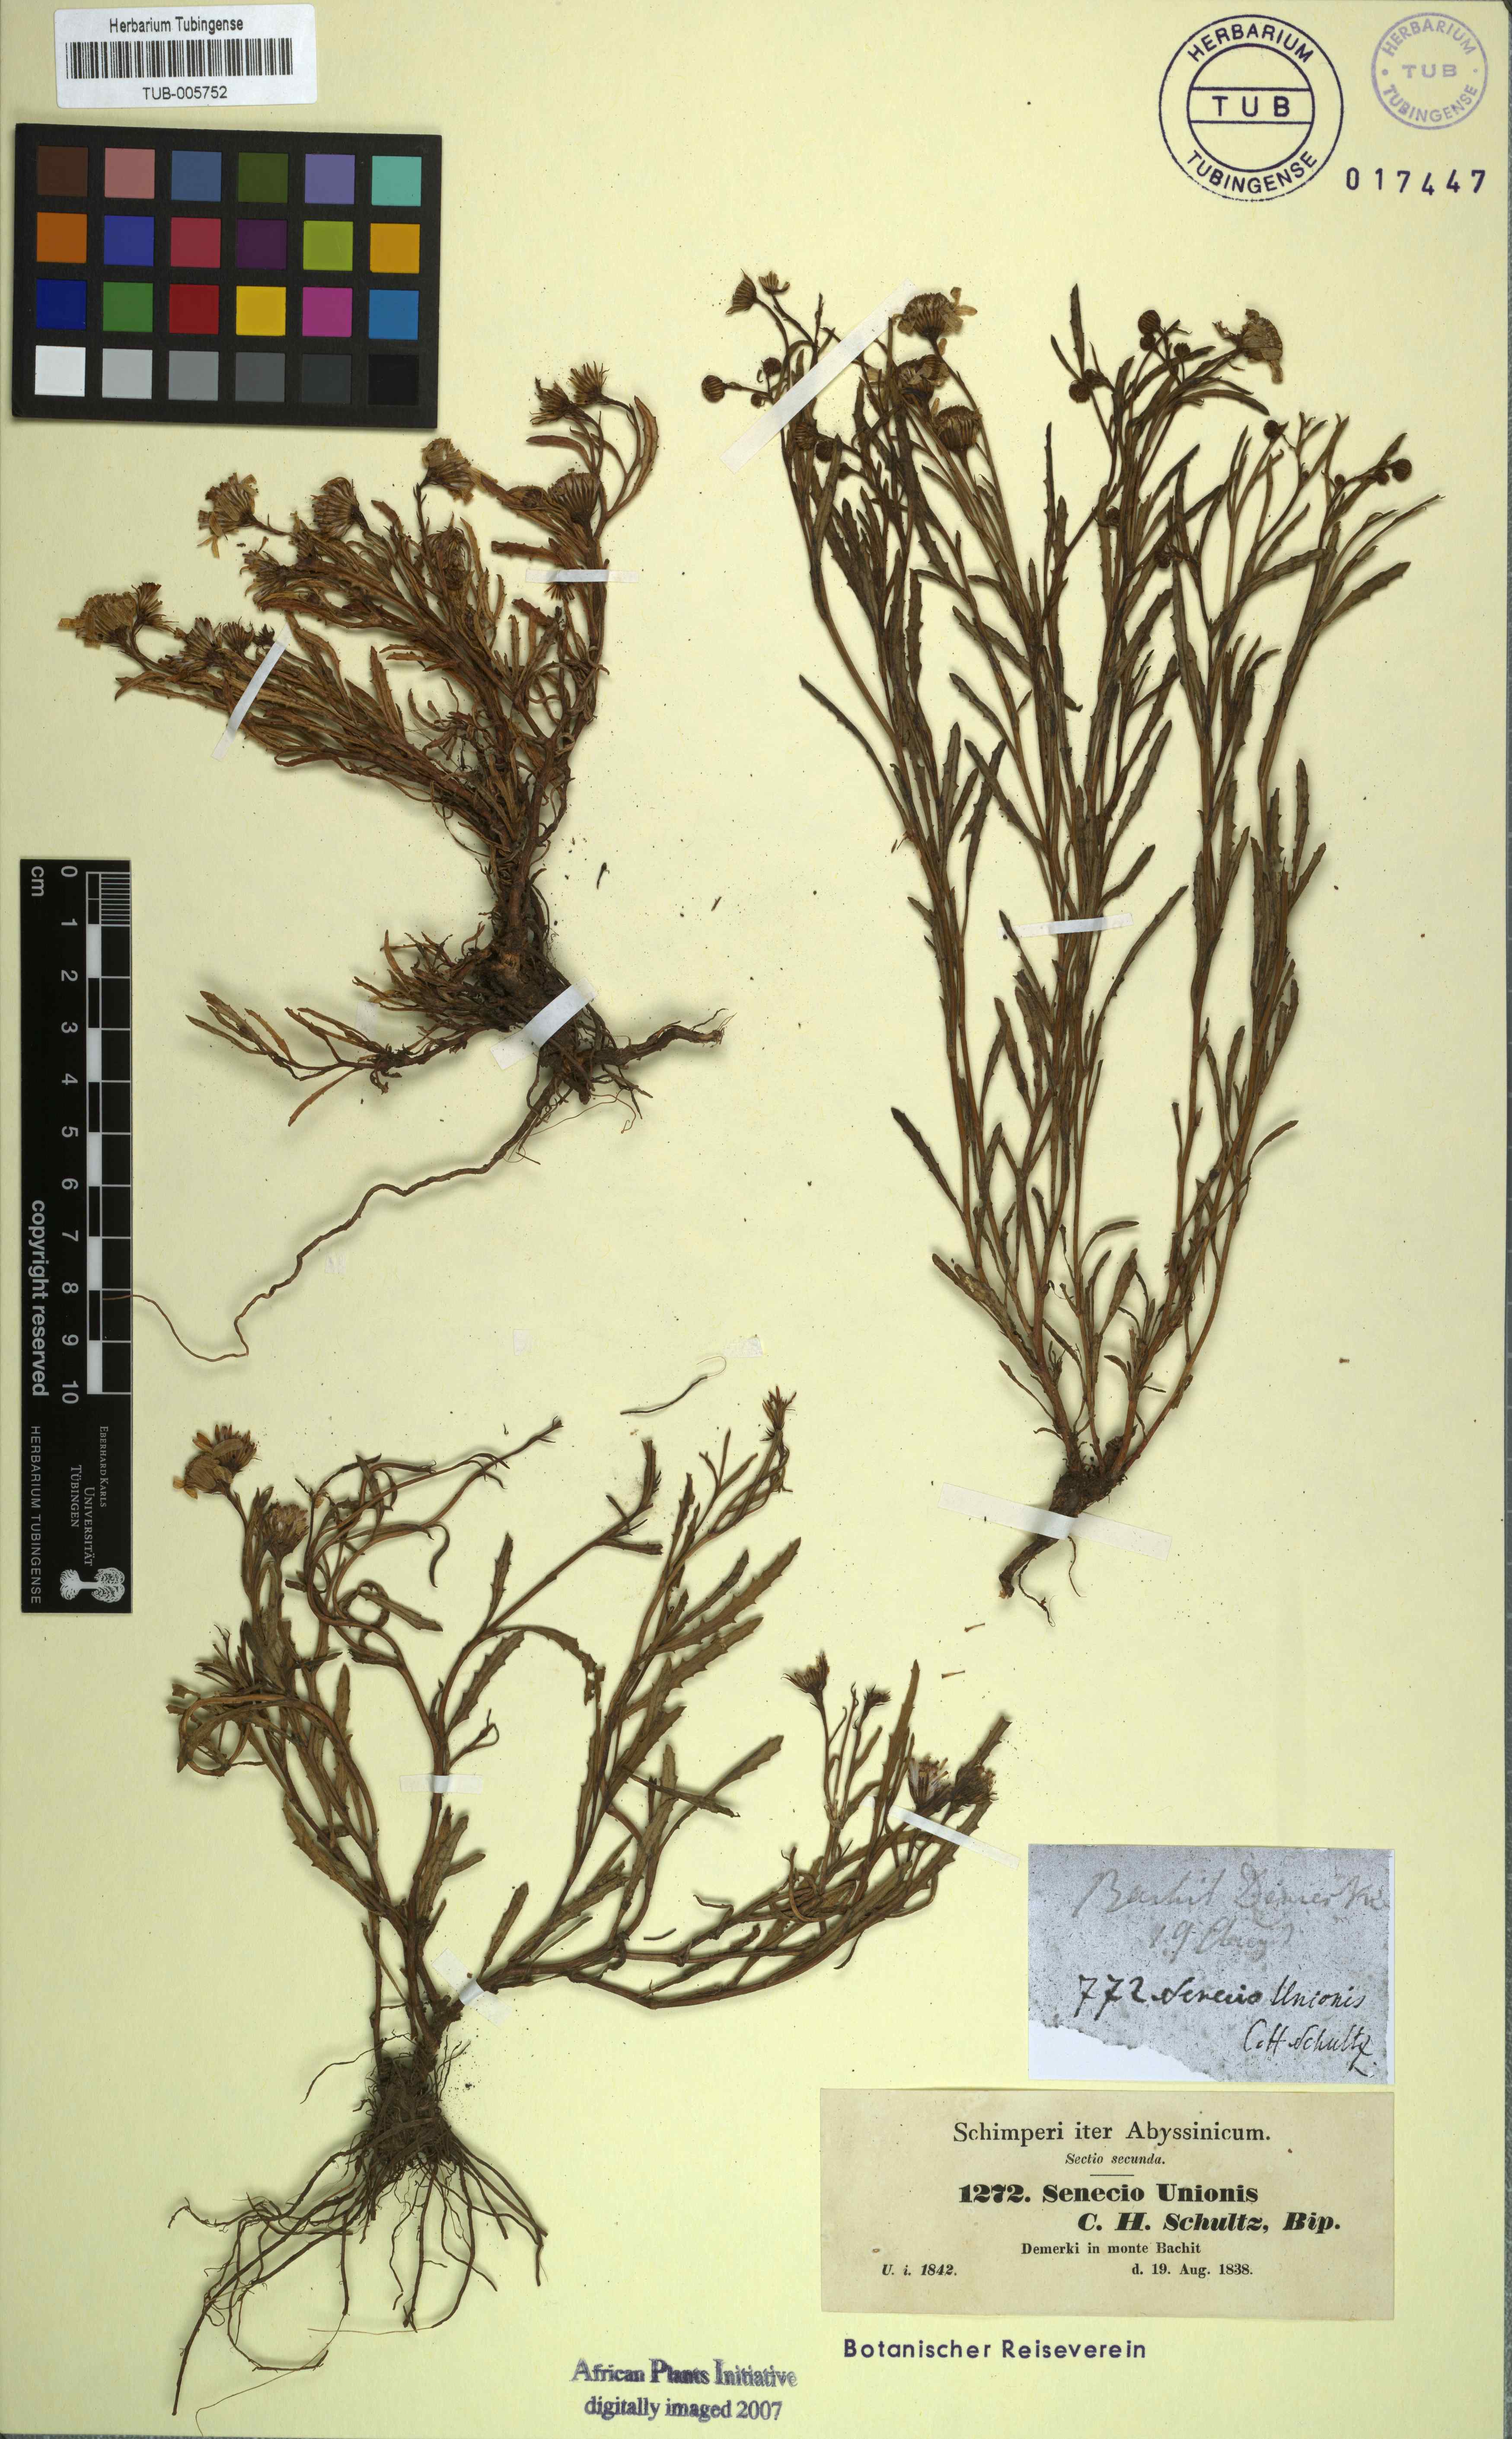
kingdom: Plantae
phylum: Tracheophyta
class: Magnoliopsida
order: Asterales
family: Asteraceae
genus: Senecio
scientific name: Senecio unionis
